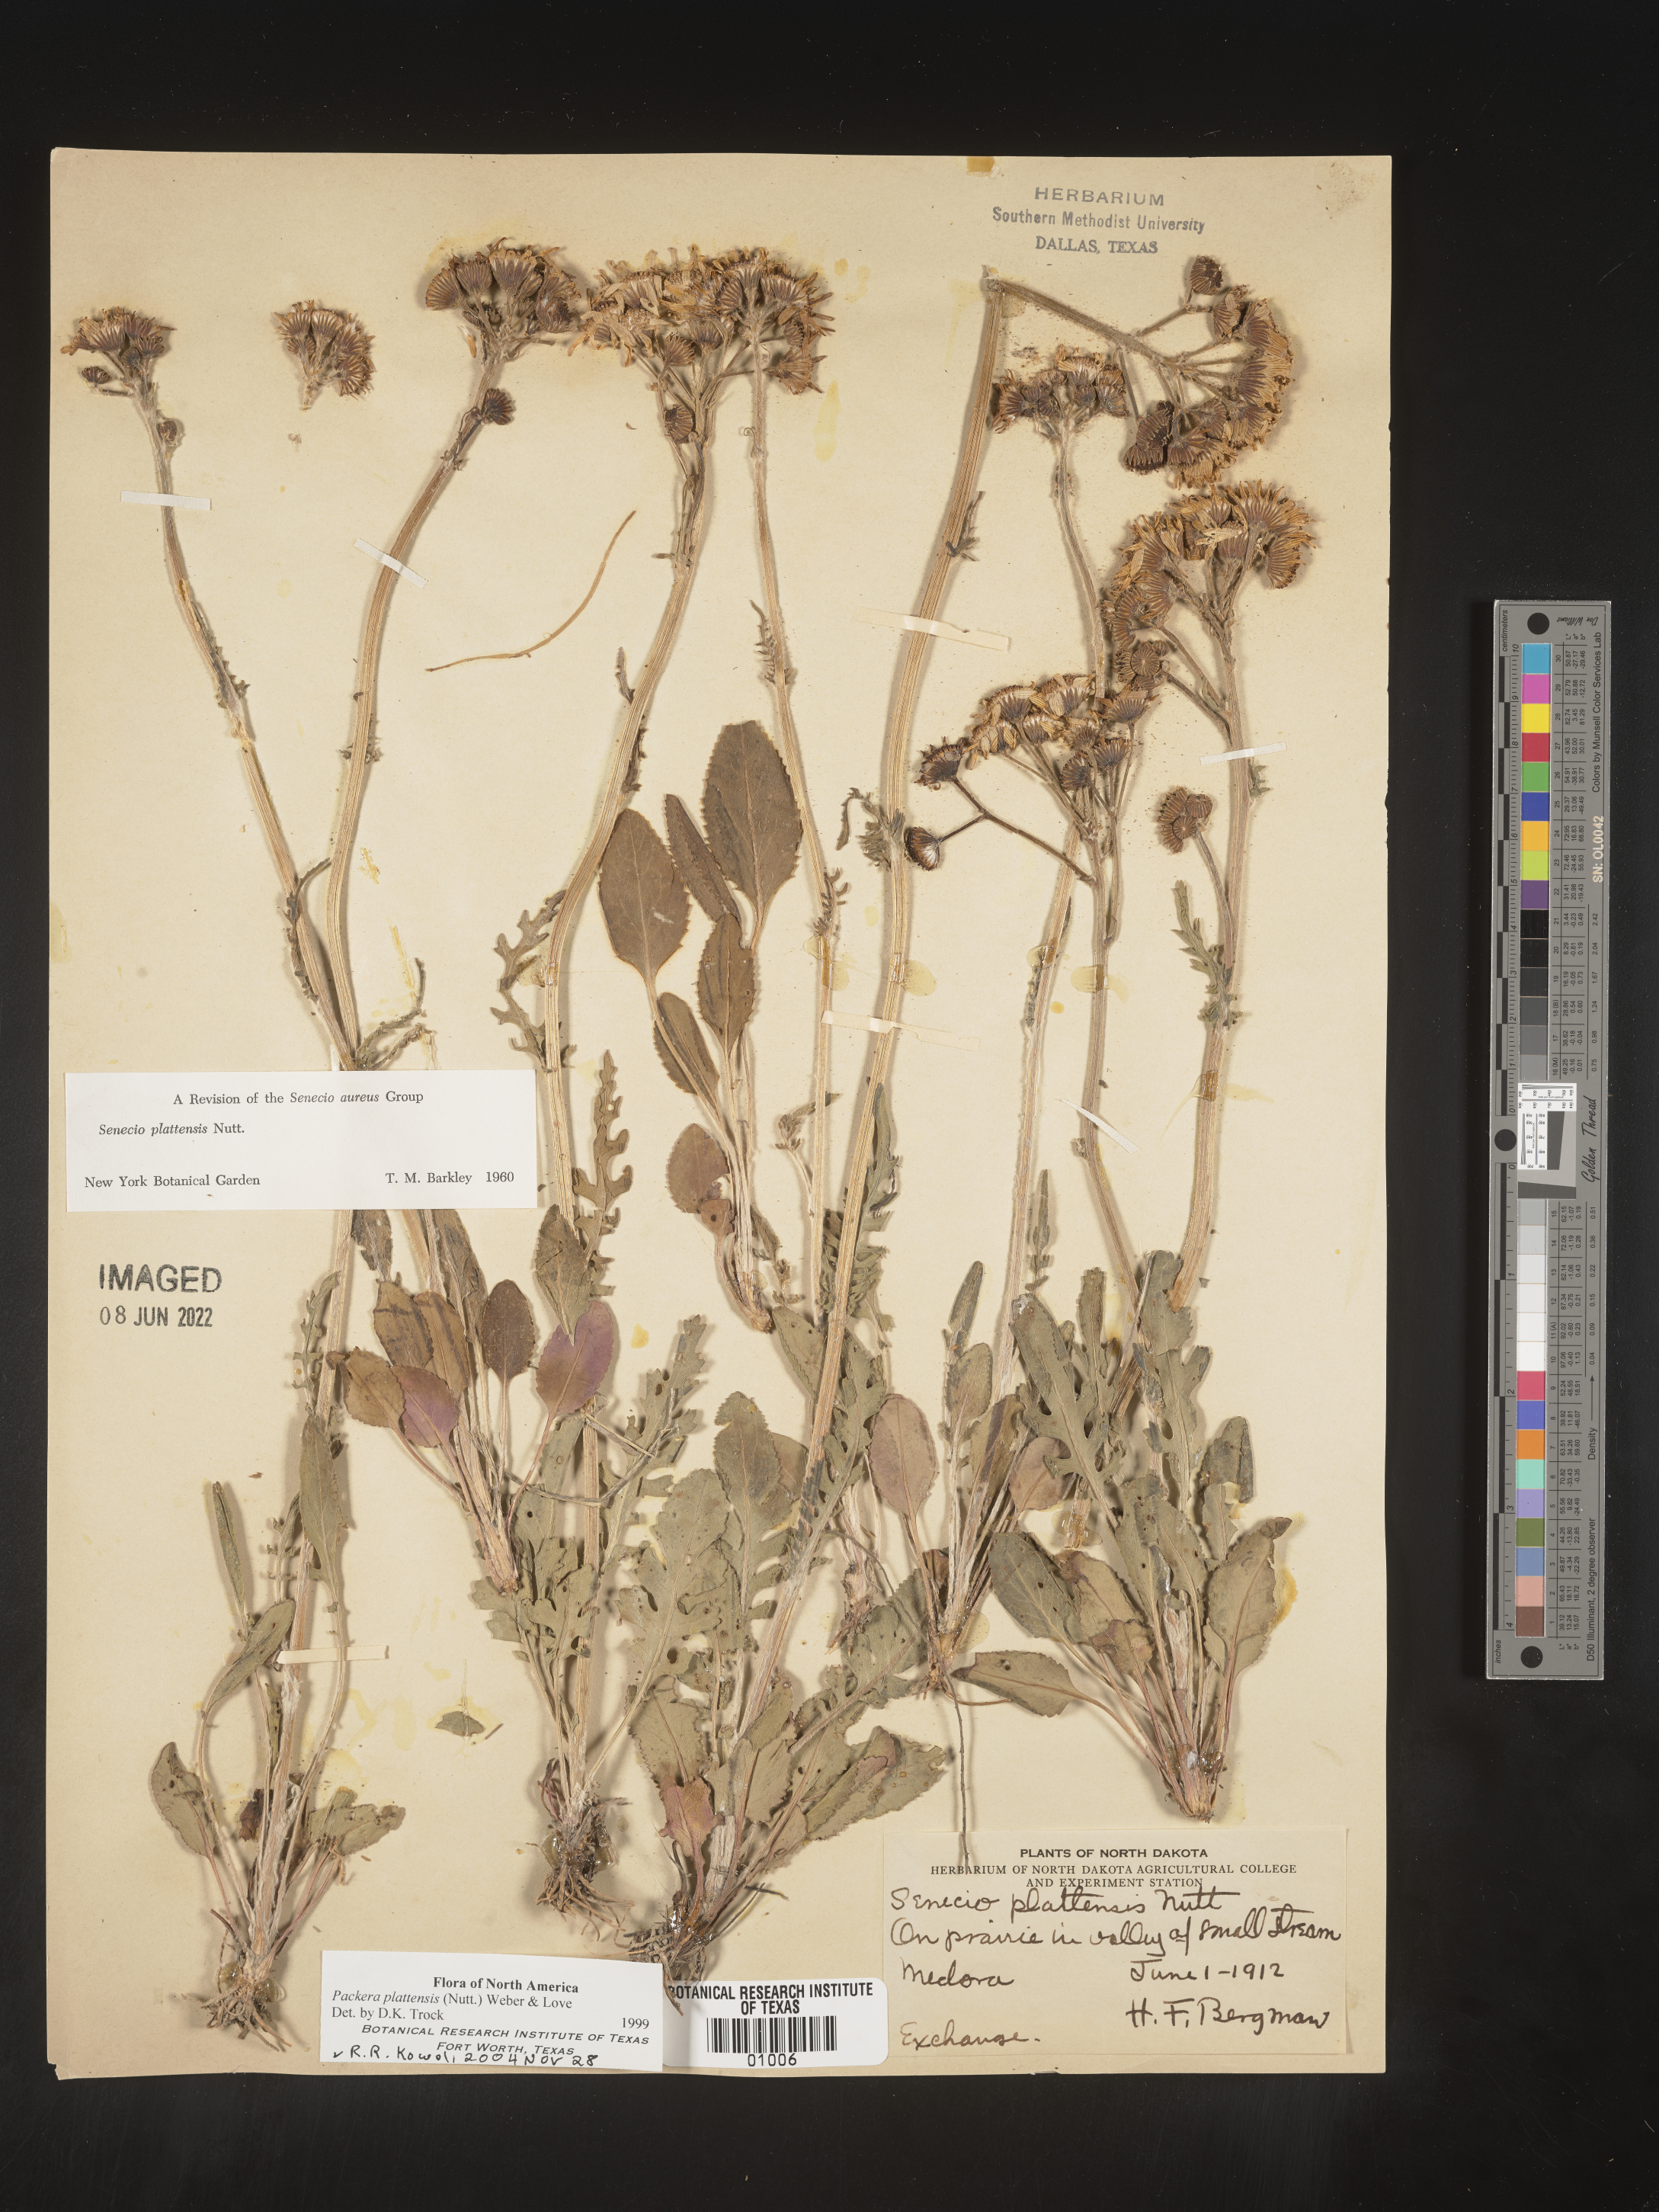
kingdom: Plantae
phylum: Tracheophyta
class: Magnoliopsida
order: Asterales
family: Asteraceae
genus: Packera
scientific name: Packera plattensis
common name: Prairie groundsel
